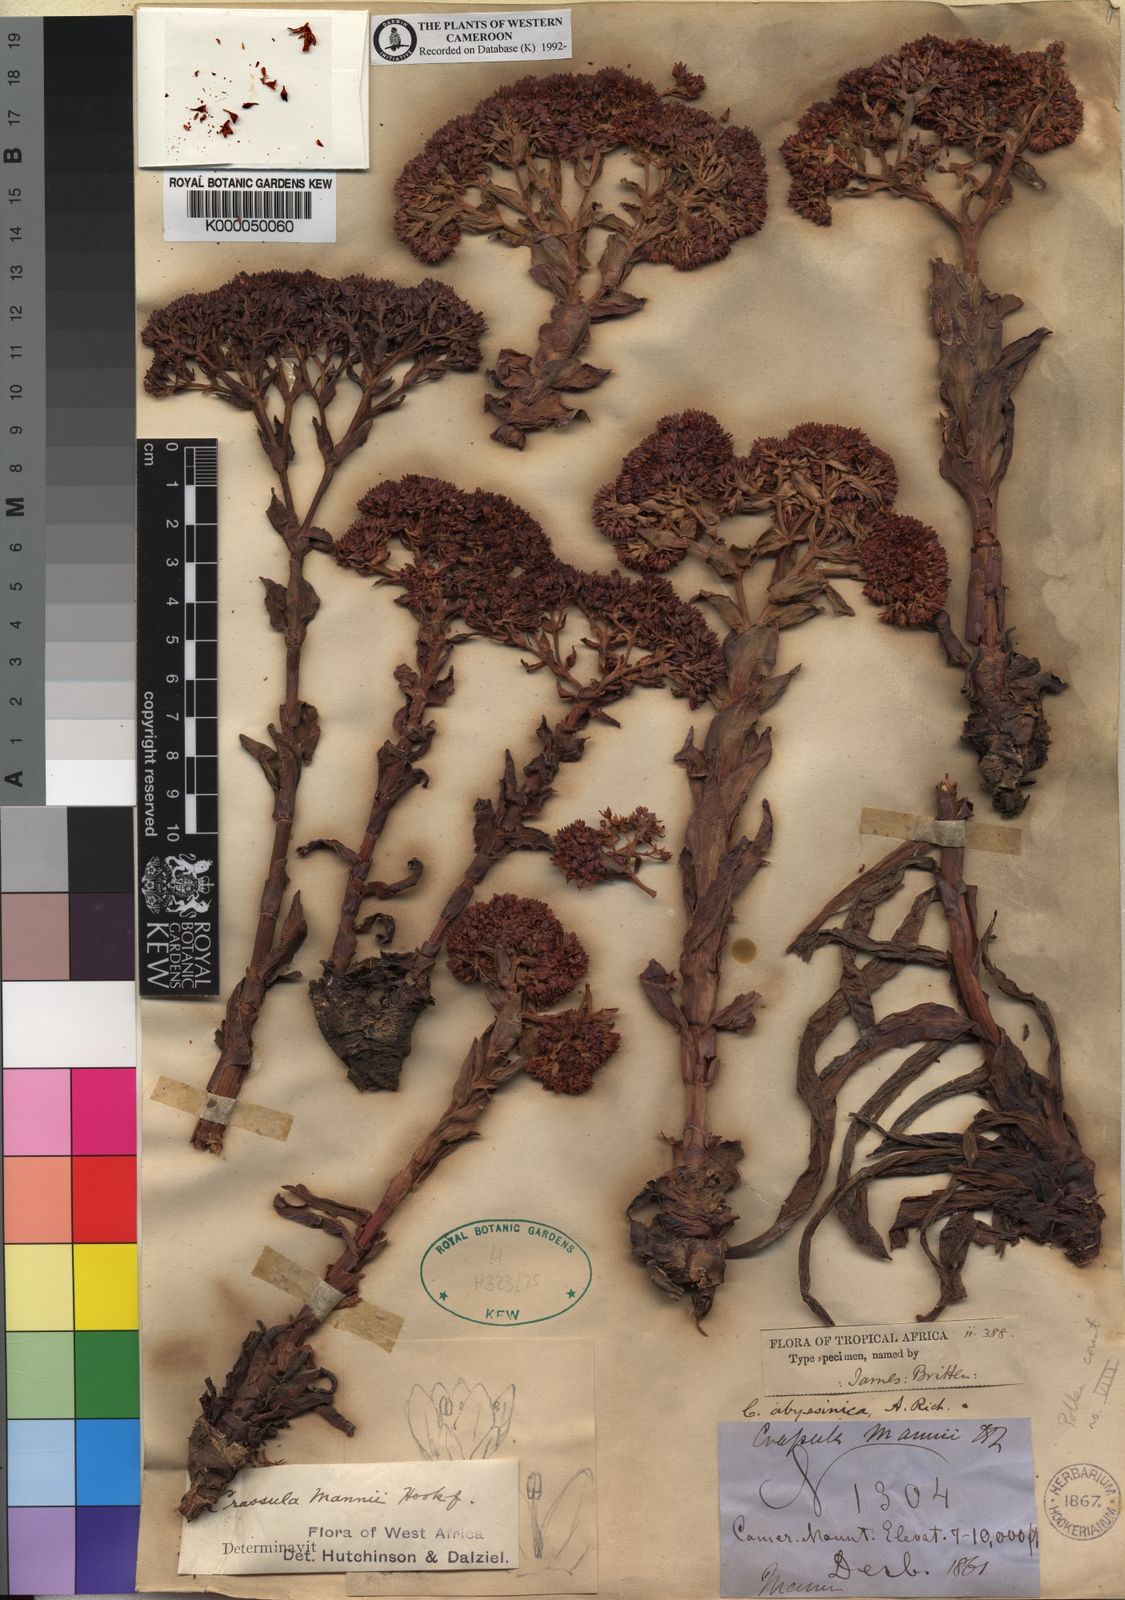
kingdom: Plantae
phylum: Tracheophyta
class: Magnoliopsida
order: Saxifragales
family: Crassulaceae
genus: Crassula
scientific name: Crassula vaginata
